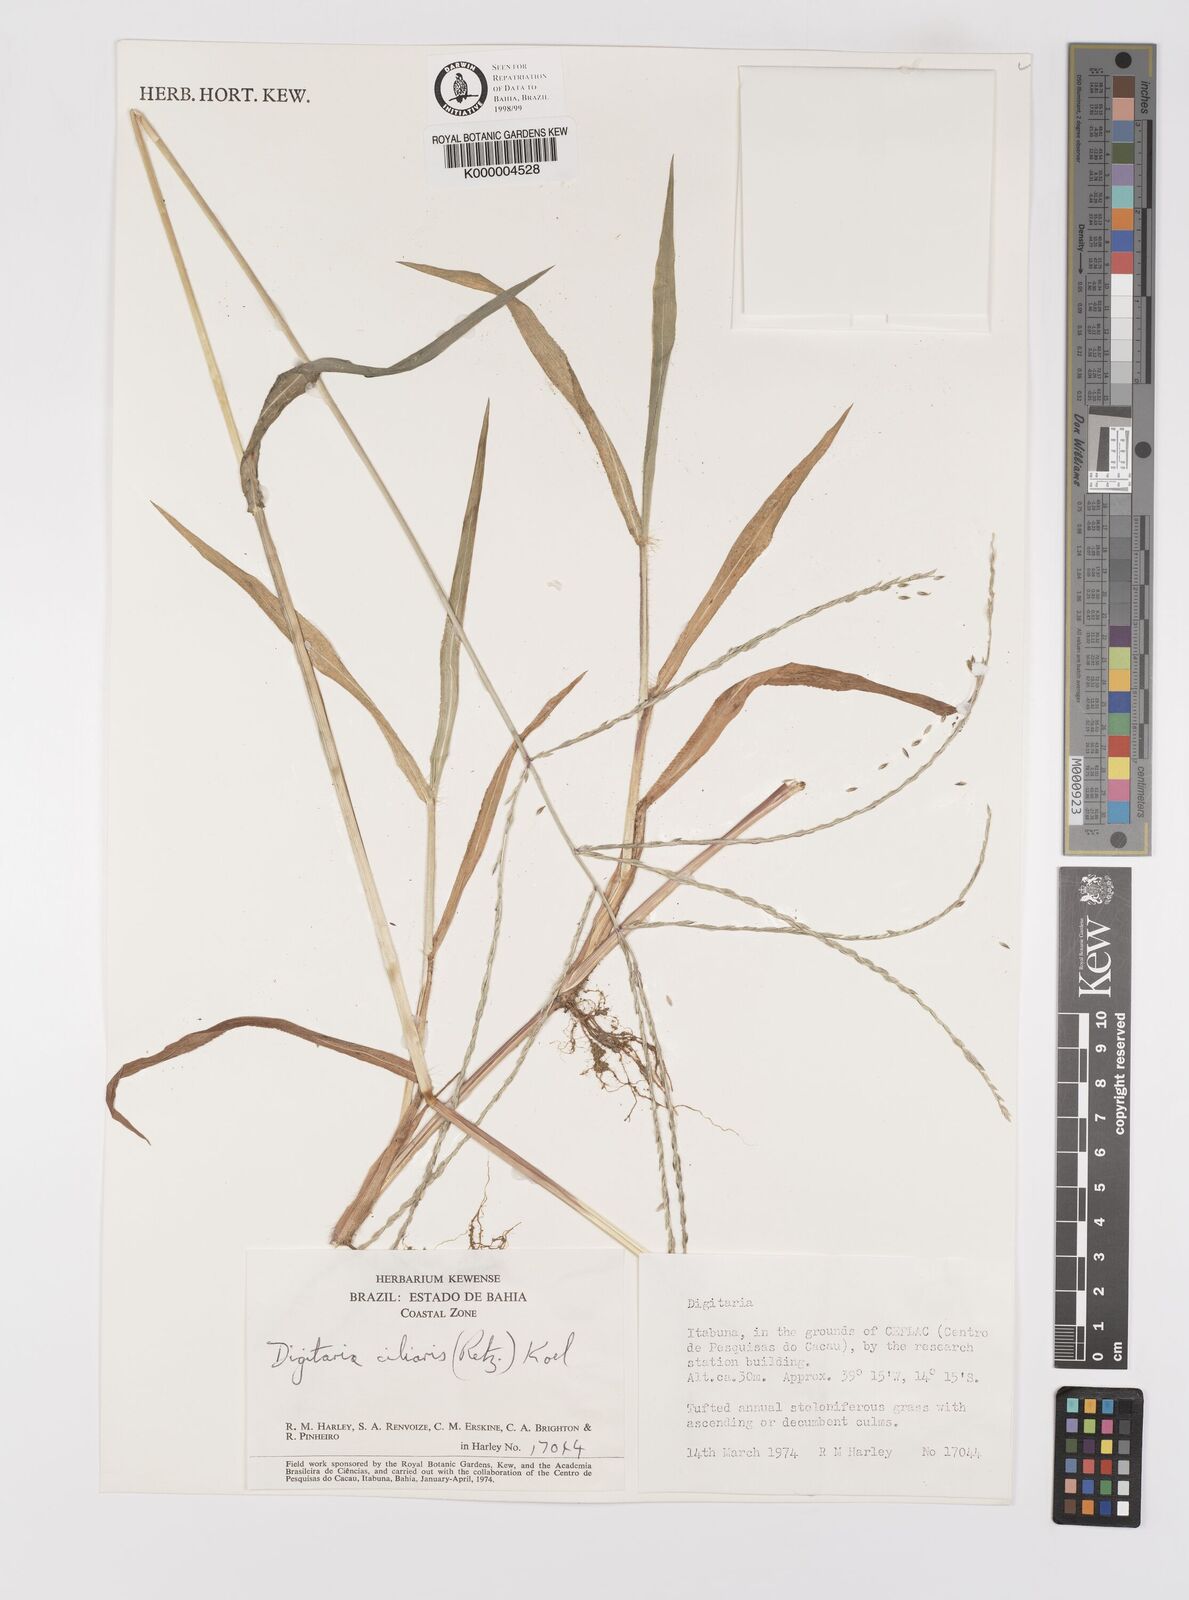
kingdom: Plantae
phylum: Tracheophyta
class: Liliopsida
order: Poales
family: Poaceae
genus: Digitaria
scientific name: Digitaria ciliaris
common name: Tropical finger-grass
